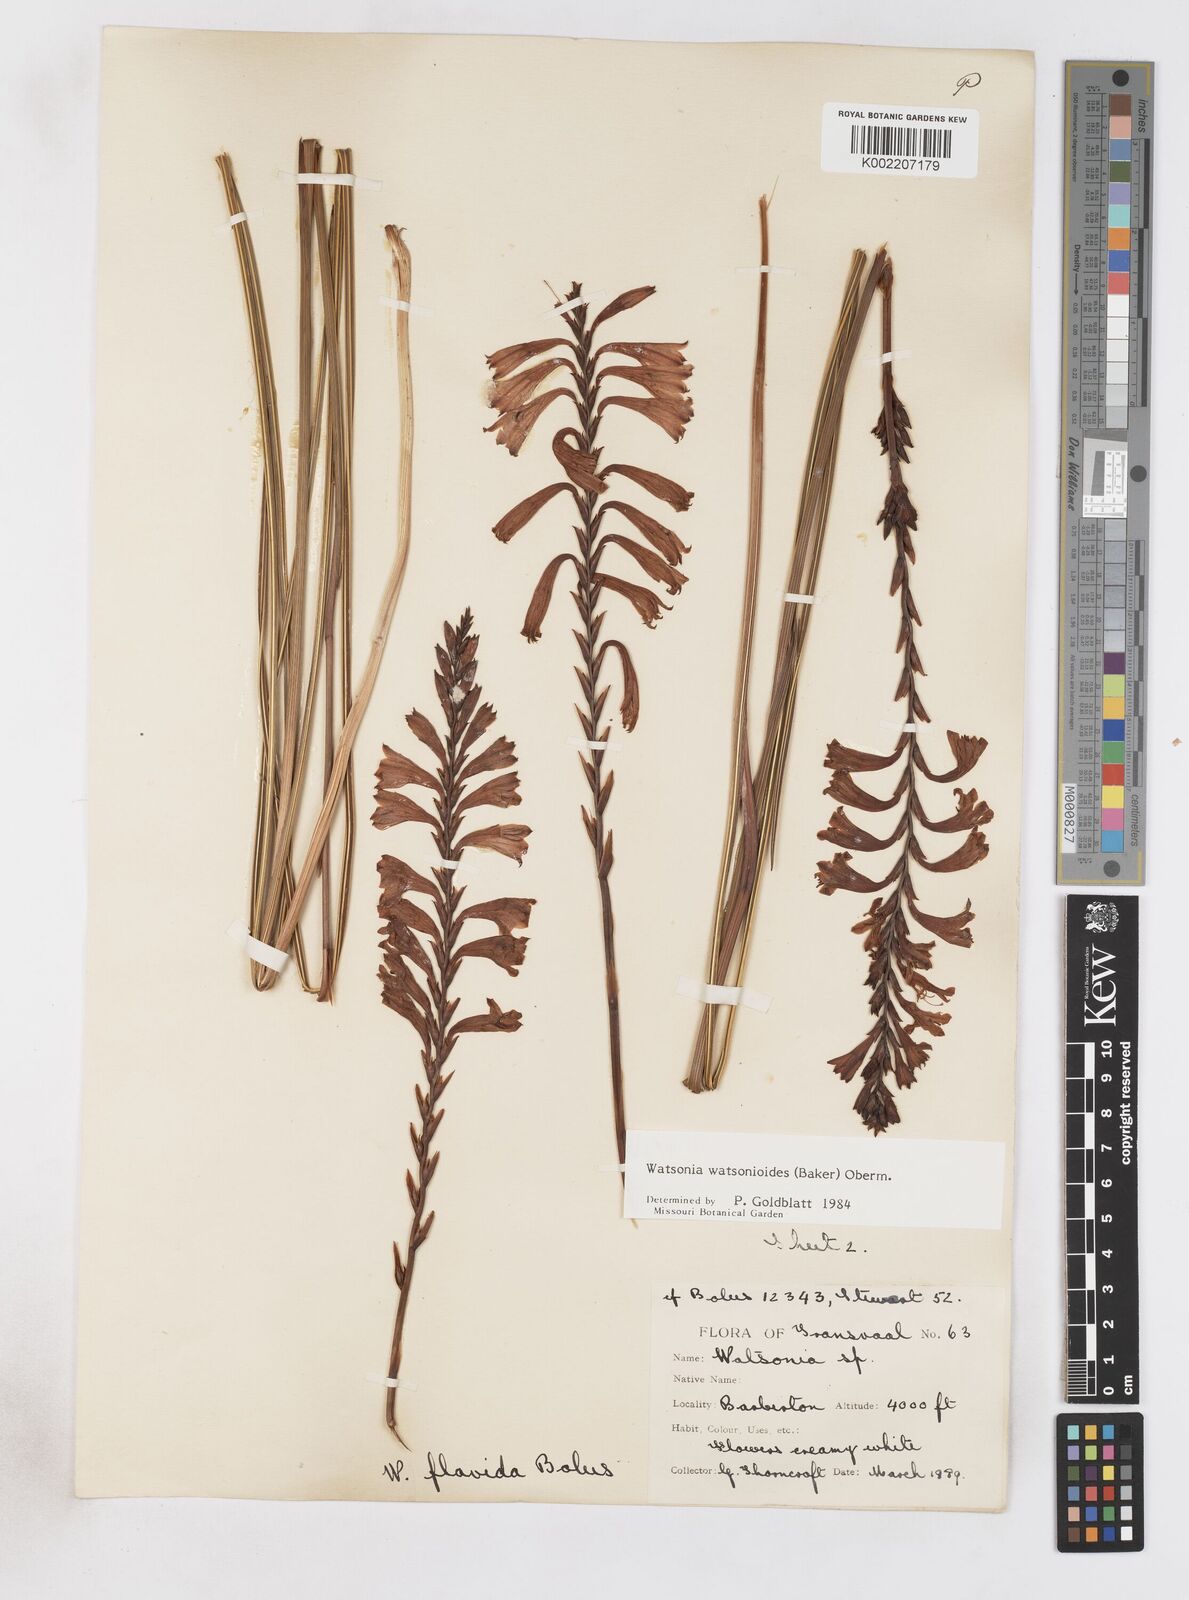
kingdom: Plantae
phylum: Tracheophyta
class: Liliopsida
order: Asparagales
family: Iridaceae
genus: Watsonia
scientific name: Watsonia watsonioides
